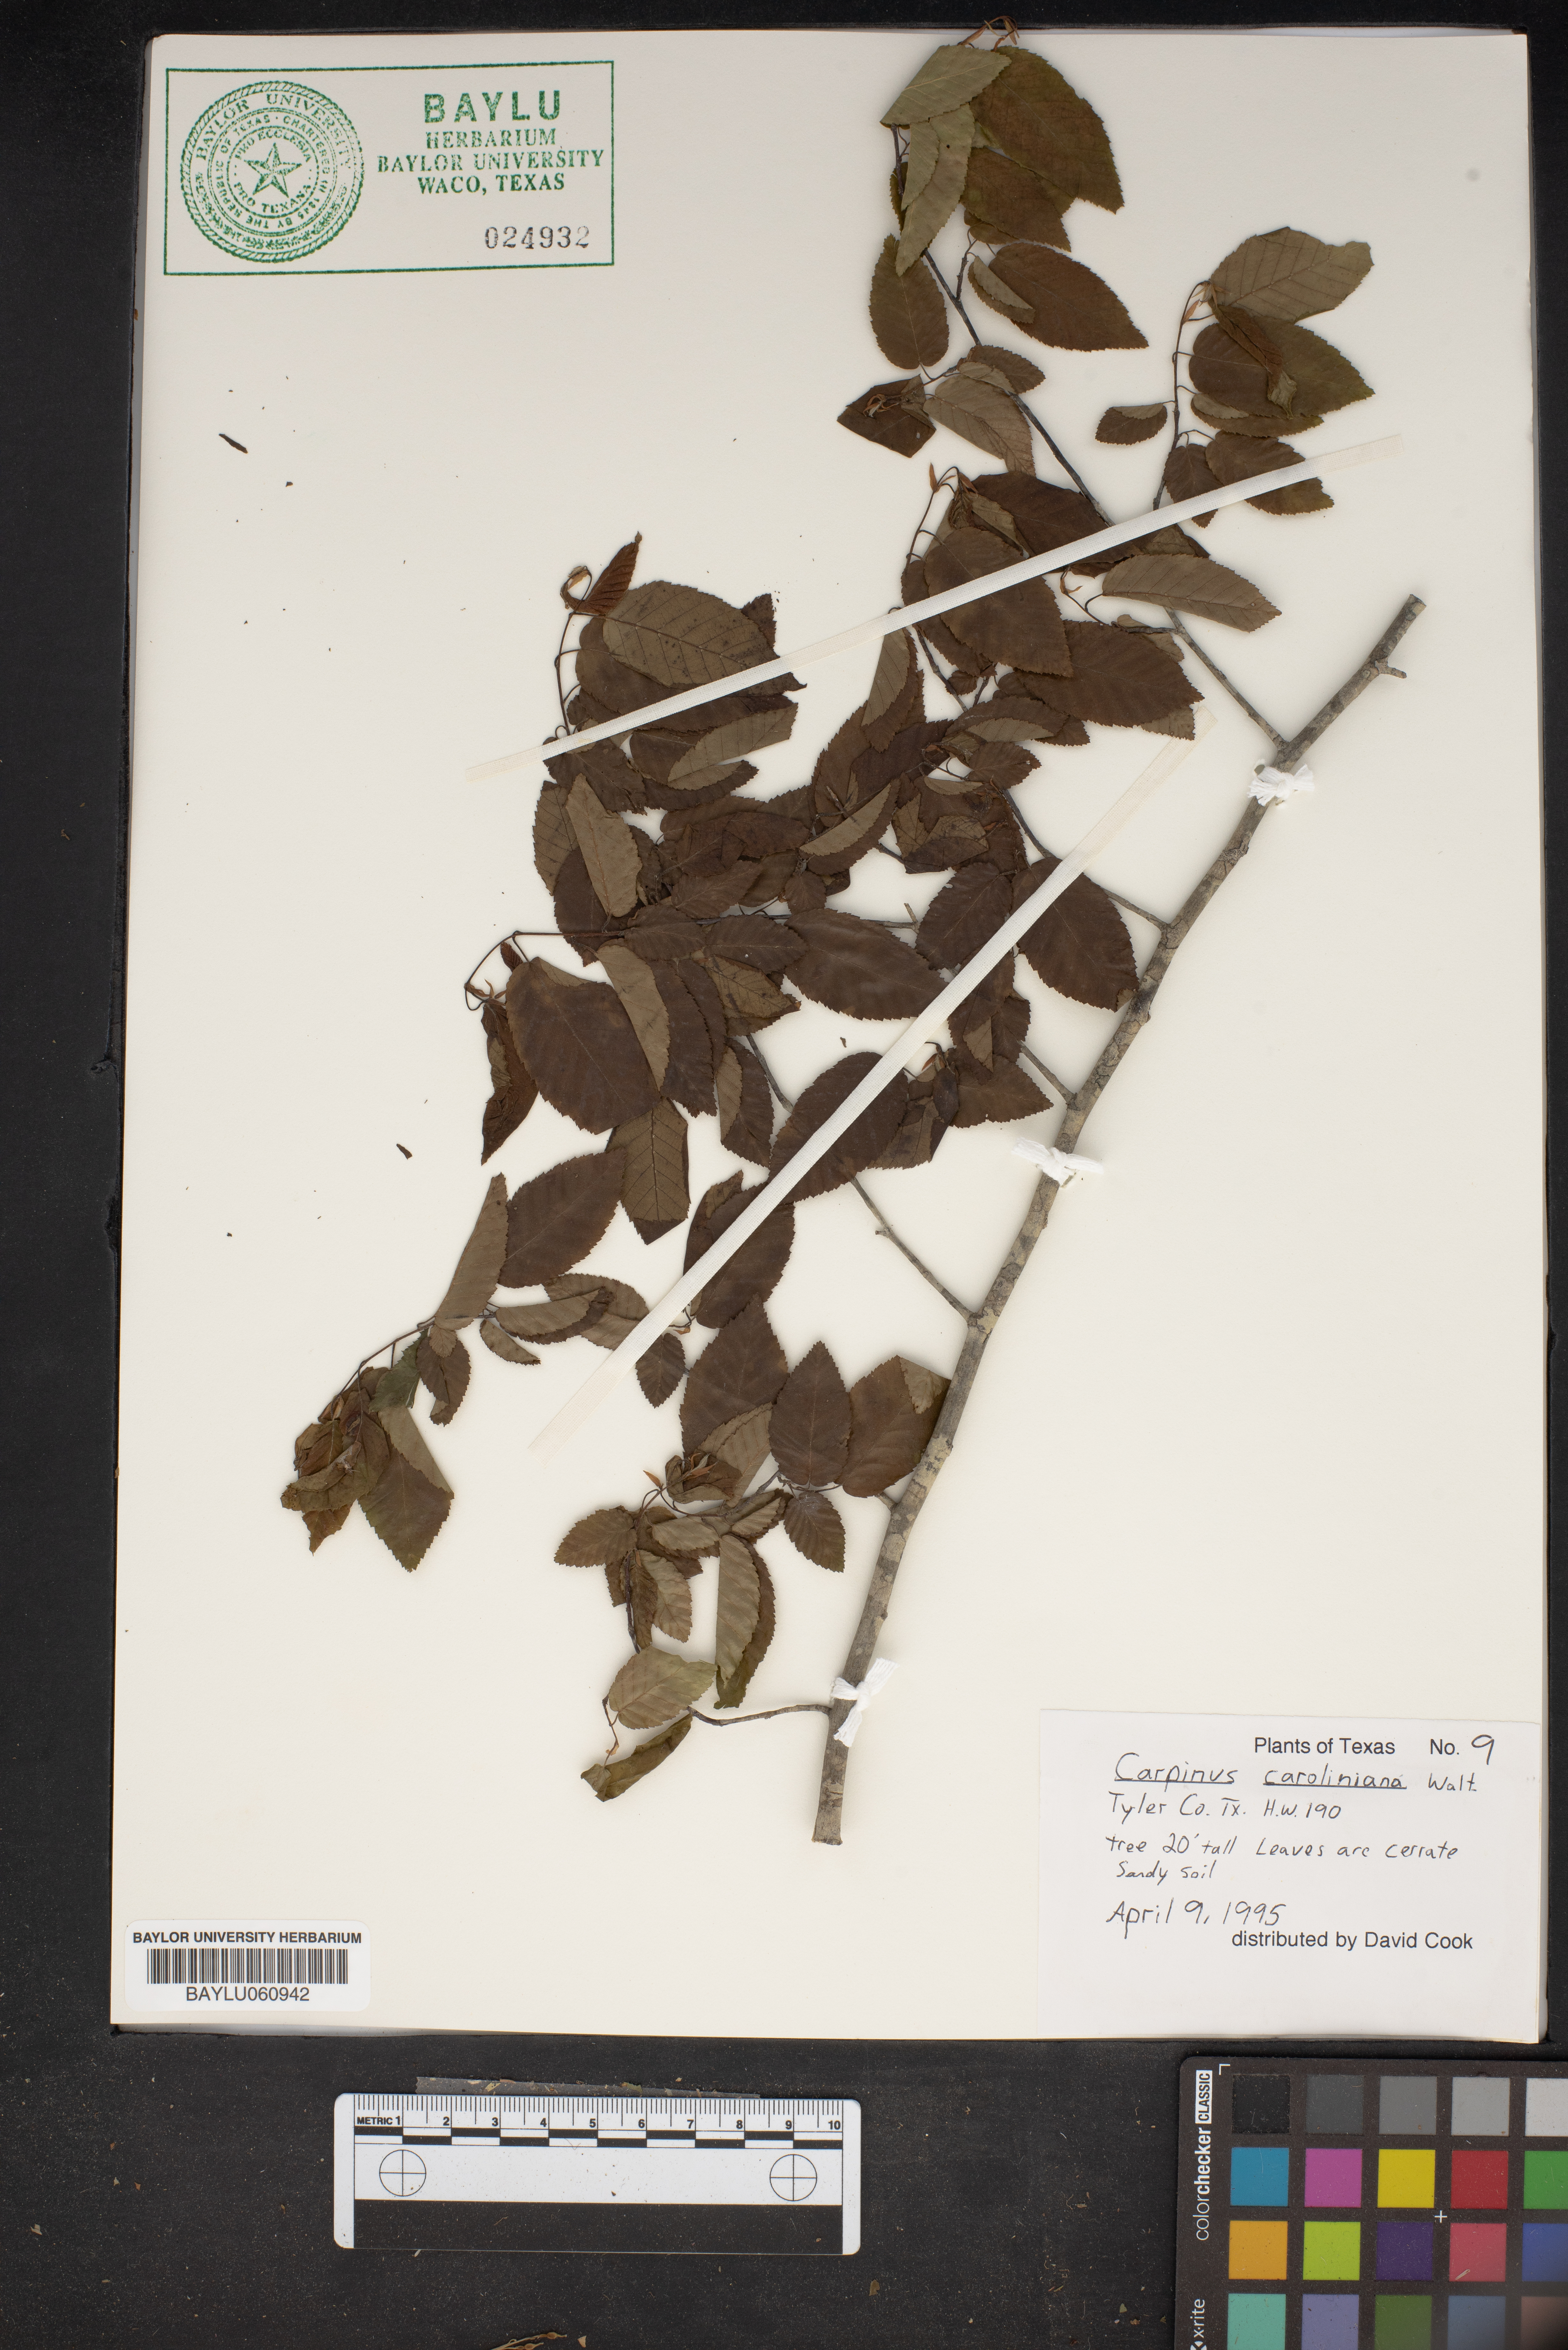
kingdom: Plantae
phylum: Tracheophyta
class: Magnoliopsida
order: Fagales
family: Betulaceae
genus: Carpinus
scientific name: Carpinus caroliniana
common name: American hornbeam
